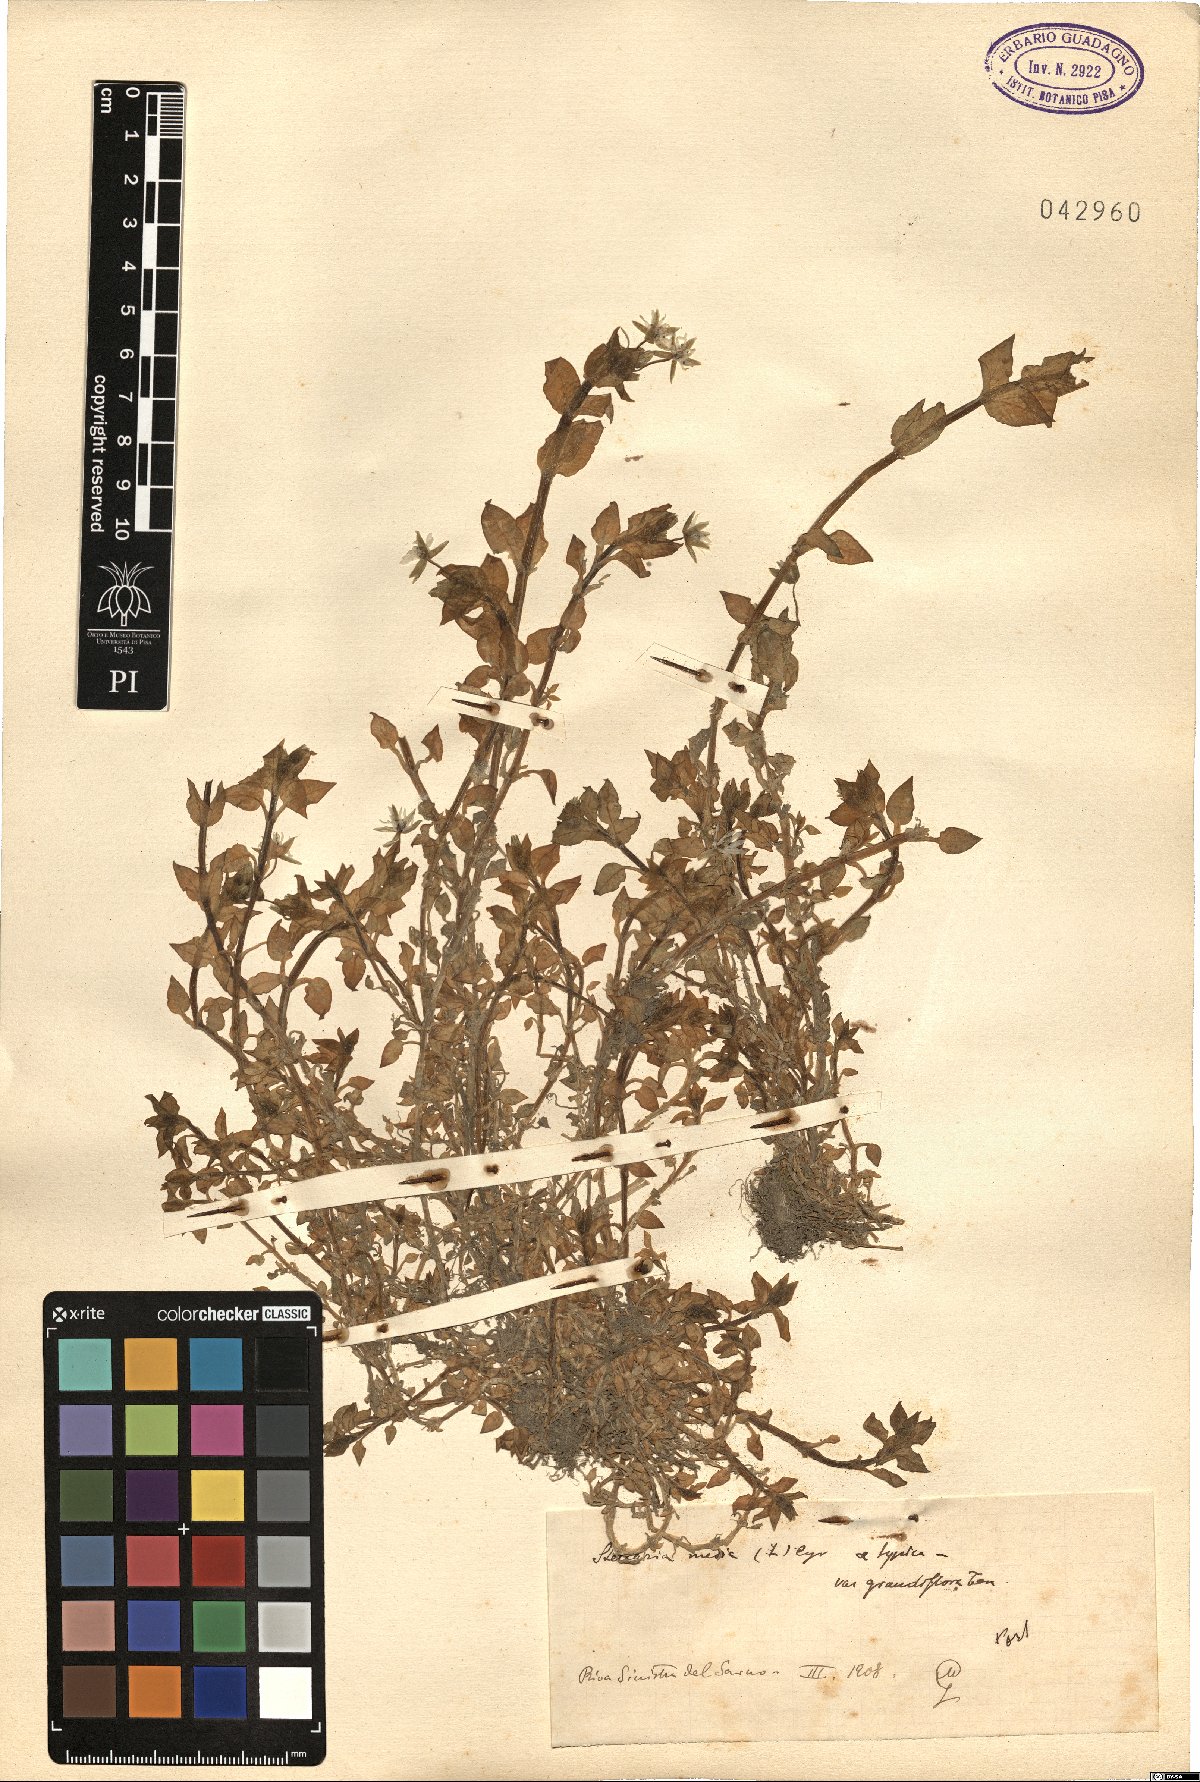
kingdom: Plantae
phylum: Tracheophyta
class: Magnoliopsida
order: Caryophyllales
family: Caryophyllaceae
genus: Stellaria
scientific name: Stellaria media
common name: Common chickweed
